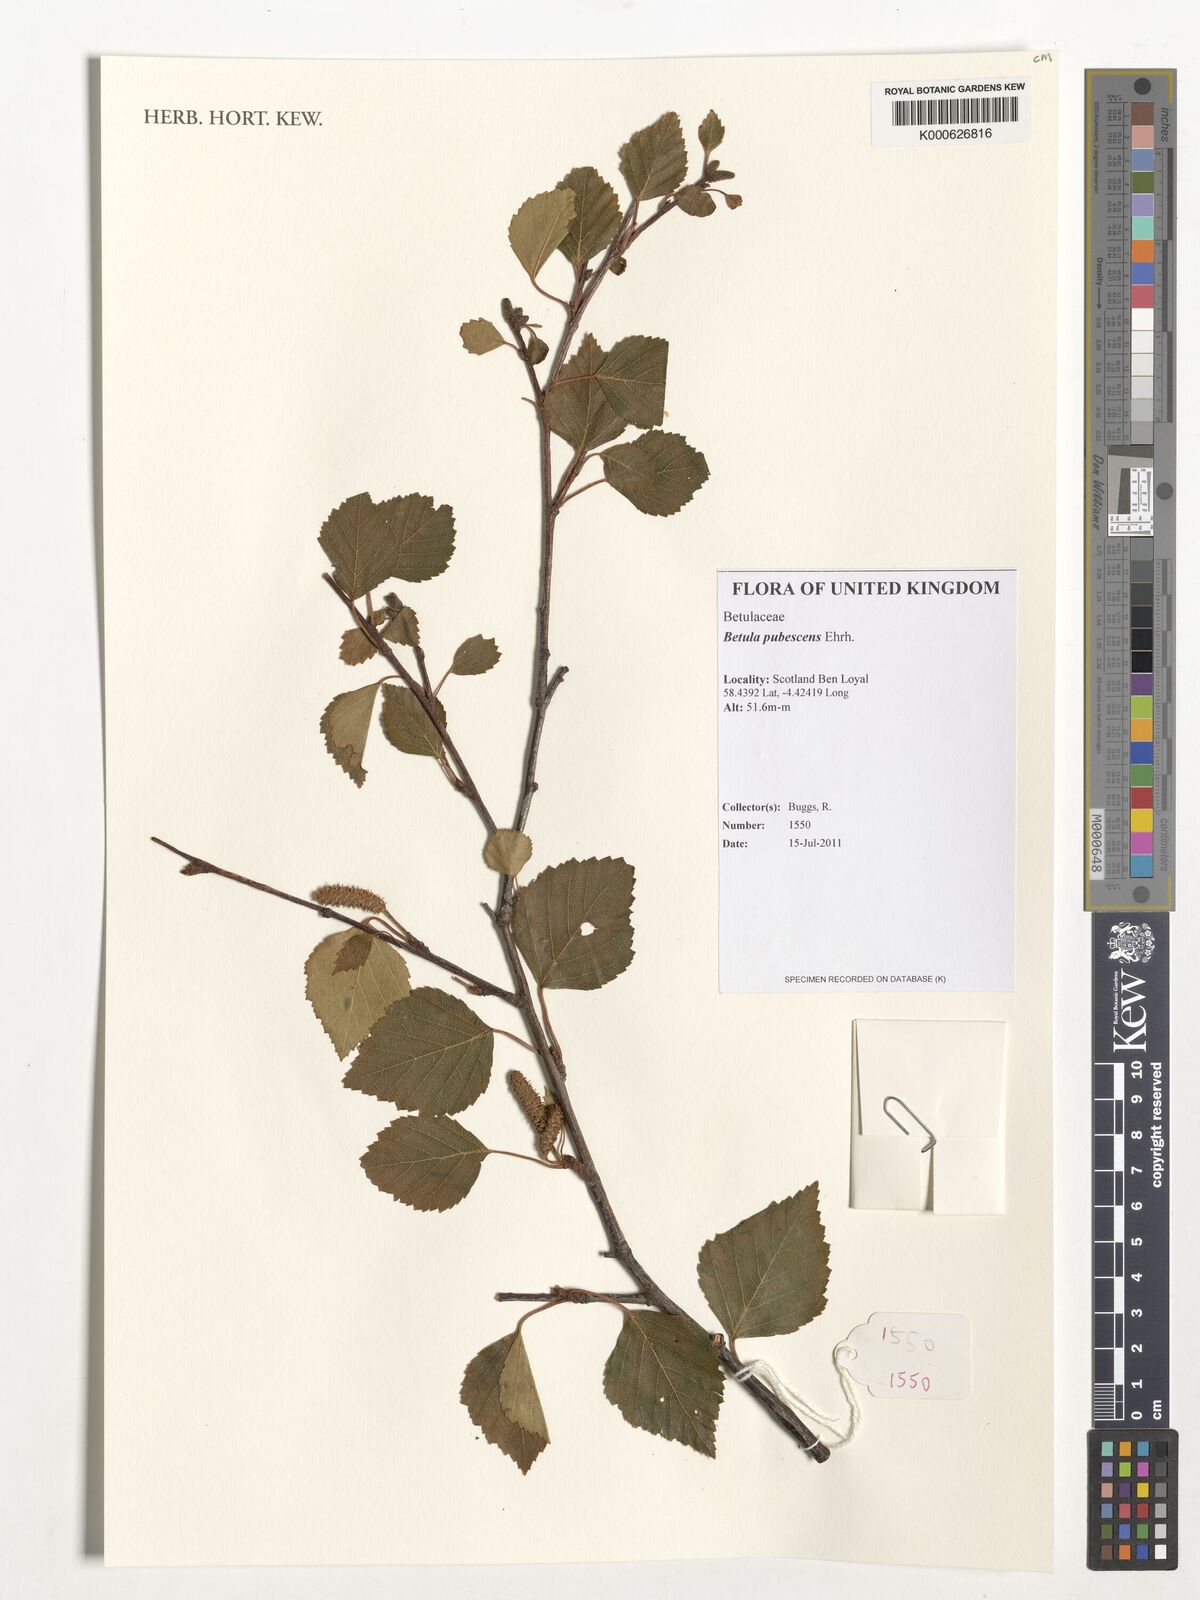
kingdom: Plantae
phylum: Tracheophyta
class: Magnoliopsida
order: Fagales
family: Betulaceae
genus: Betula
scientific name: Betula pubescens
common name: Downy birch
